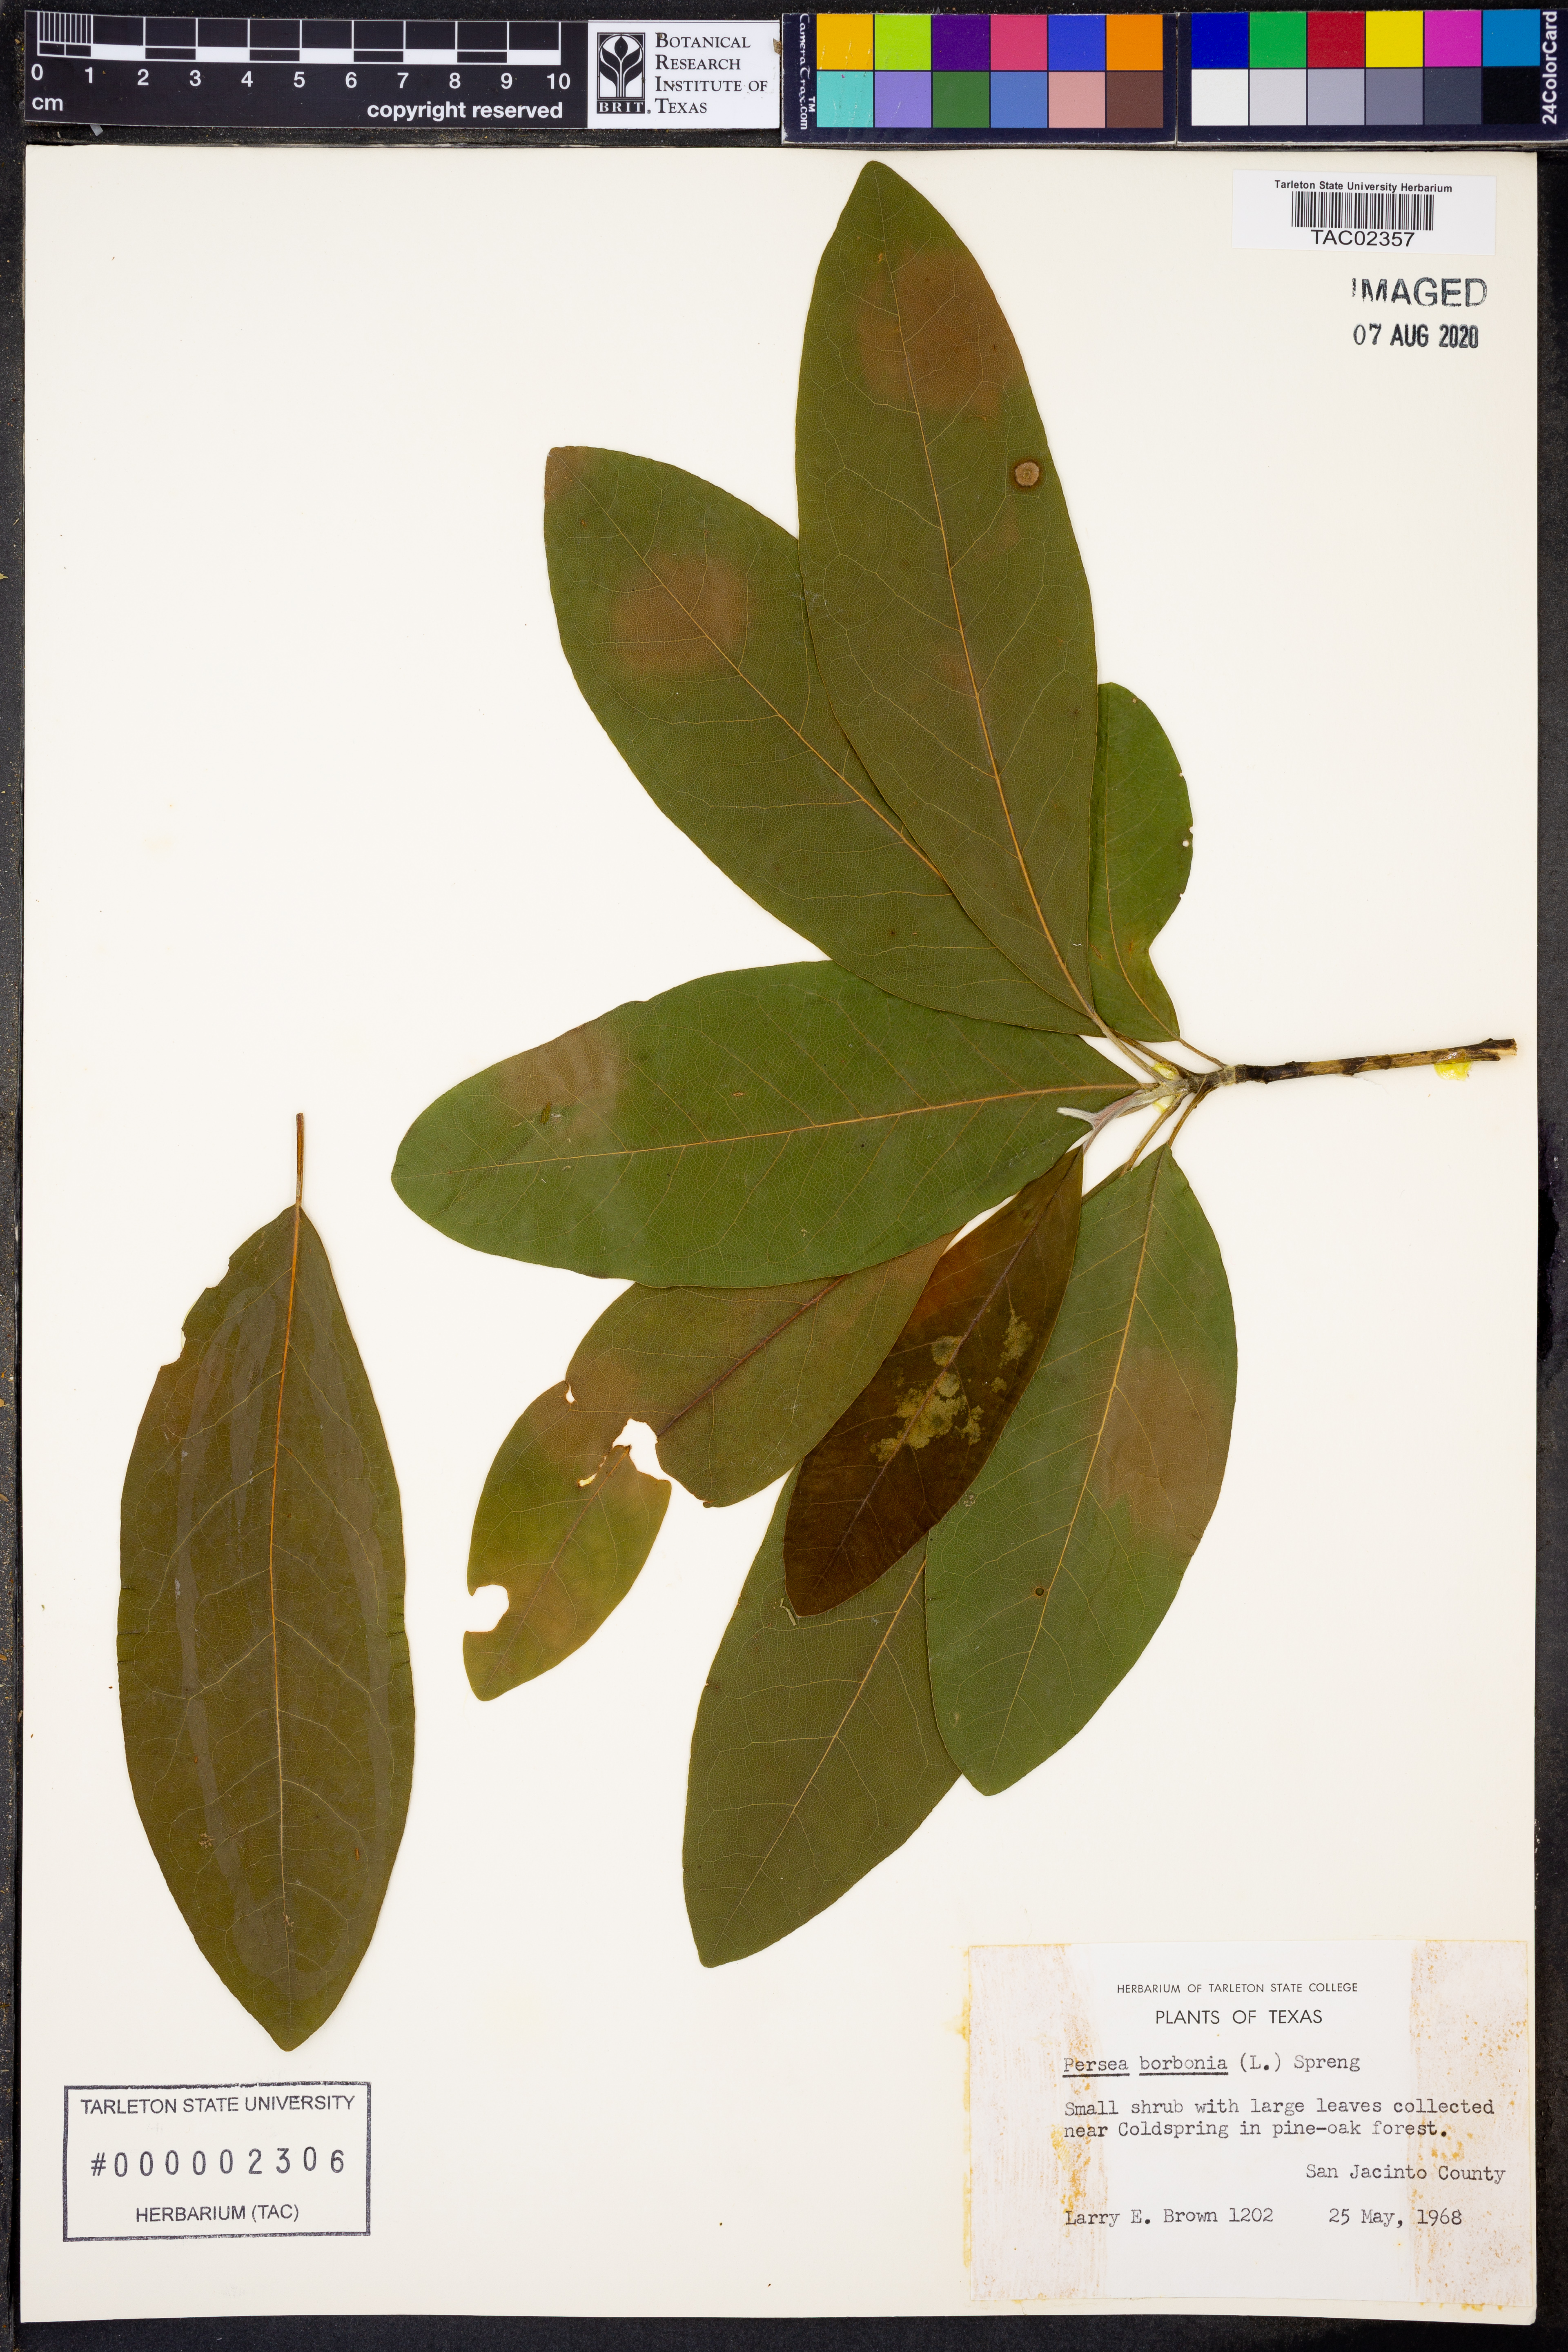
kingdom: Plantae
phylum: Tracheophyta
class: Magnoliopsida
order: Laurales
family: Lauraceae
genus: Persea
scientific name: Persea borbonia
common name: Redbay
